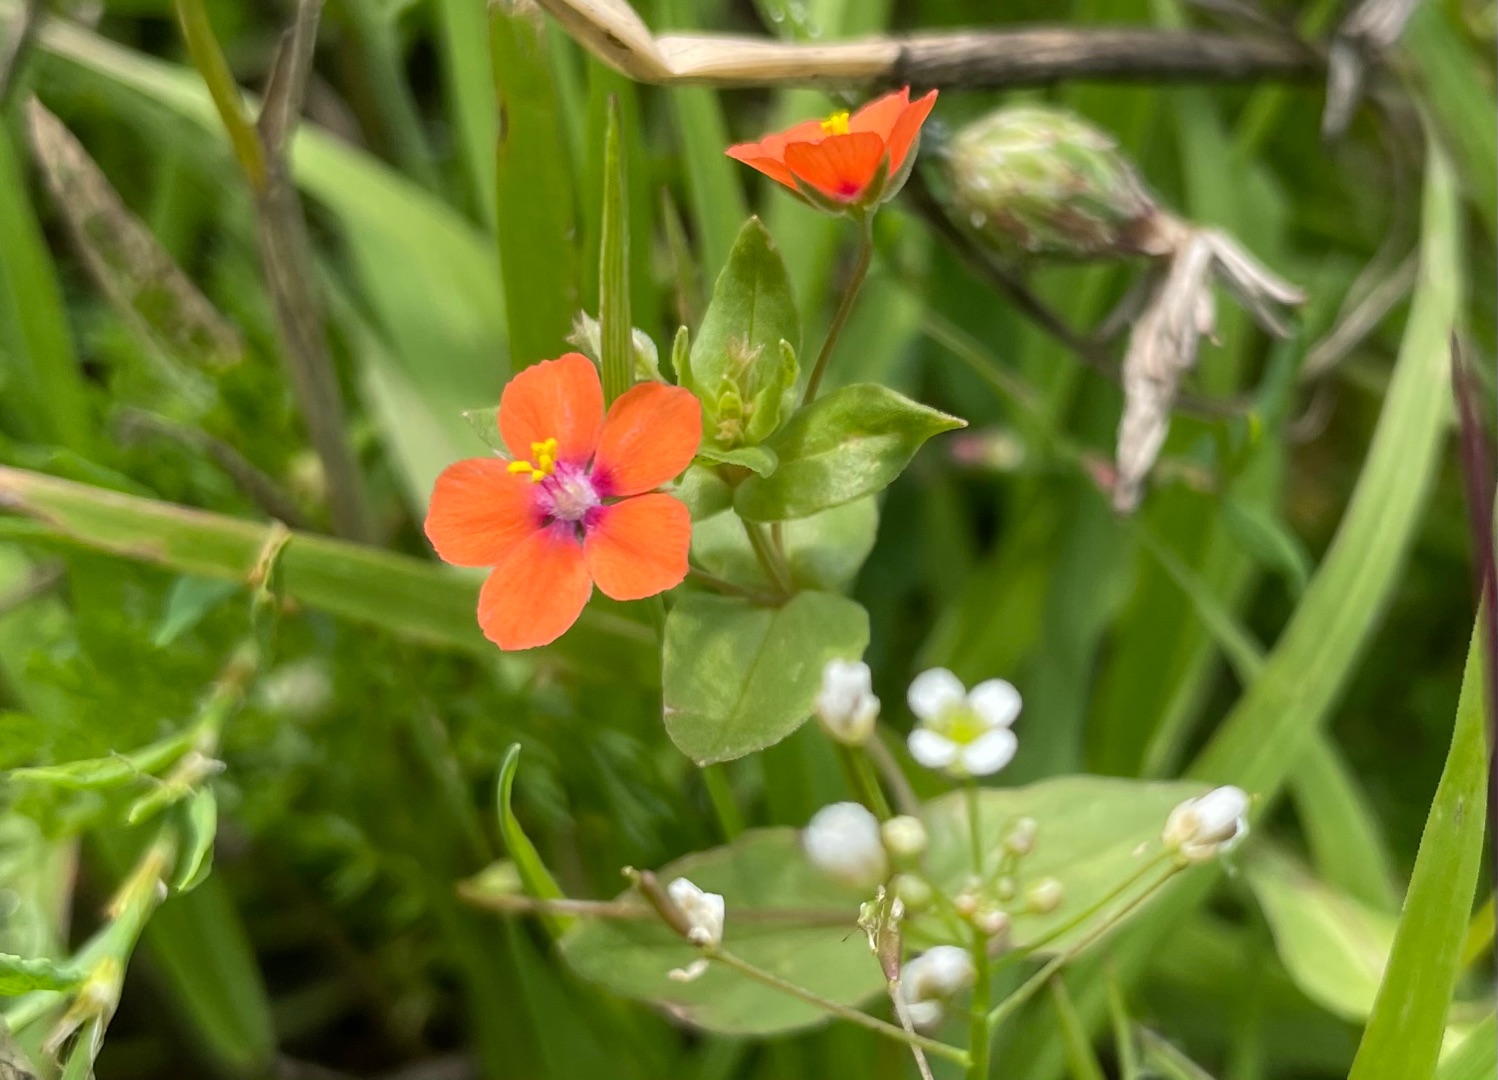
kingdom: Plantae
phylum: Tracheophyta
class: Magnoliopsida
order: Ericales
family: Primulaceae
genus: Lysimachia
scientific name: Lysimachia arvensis
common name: Rød arve
